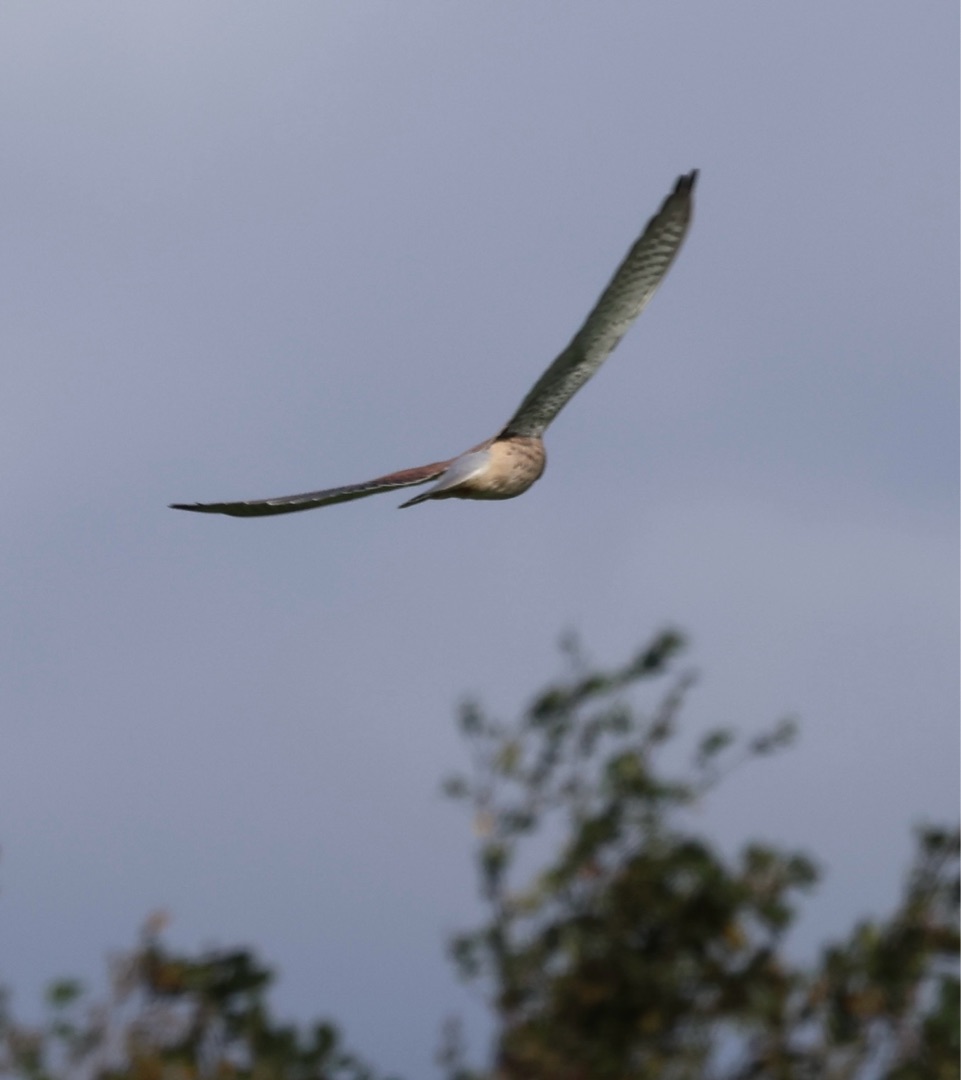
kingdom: Animalia
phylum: Chordata
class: Aves
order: Falconiformes
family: Falconidae
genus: Falco
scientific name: Falco tinnunculus
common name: Tårnfalk
